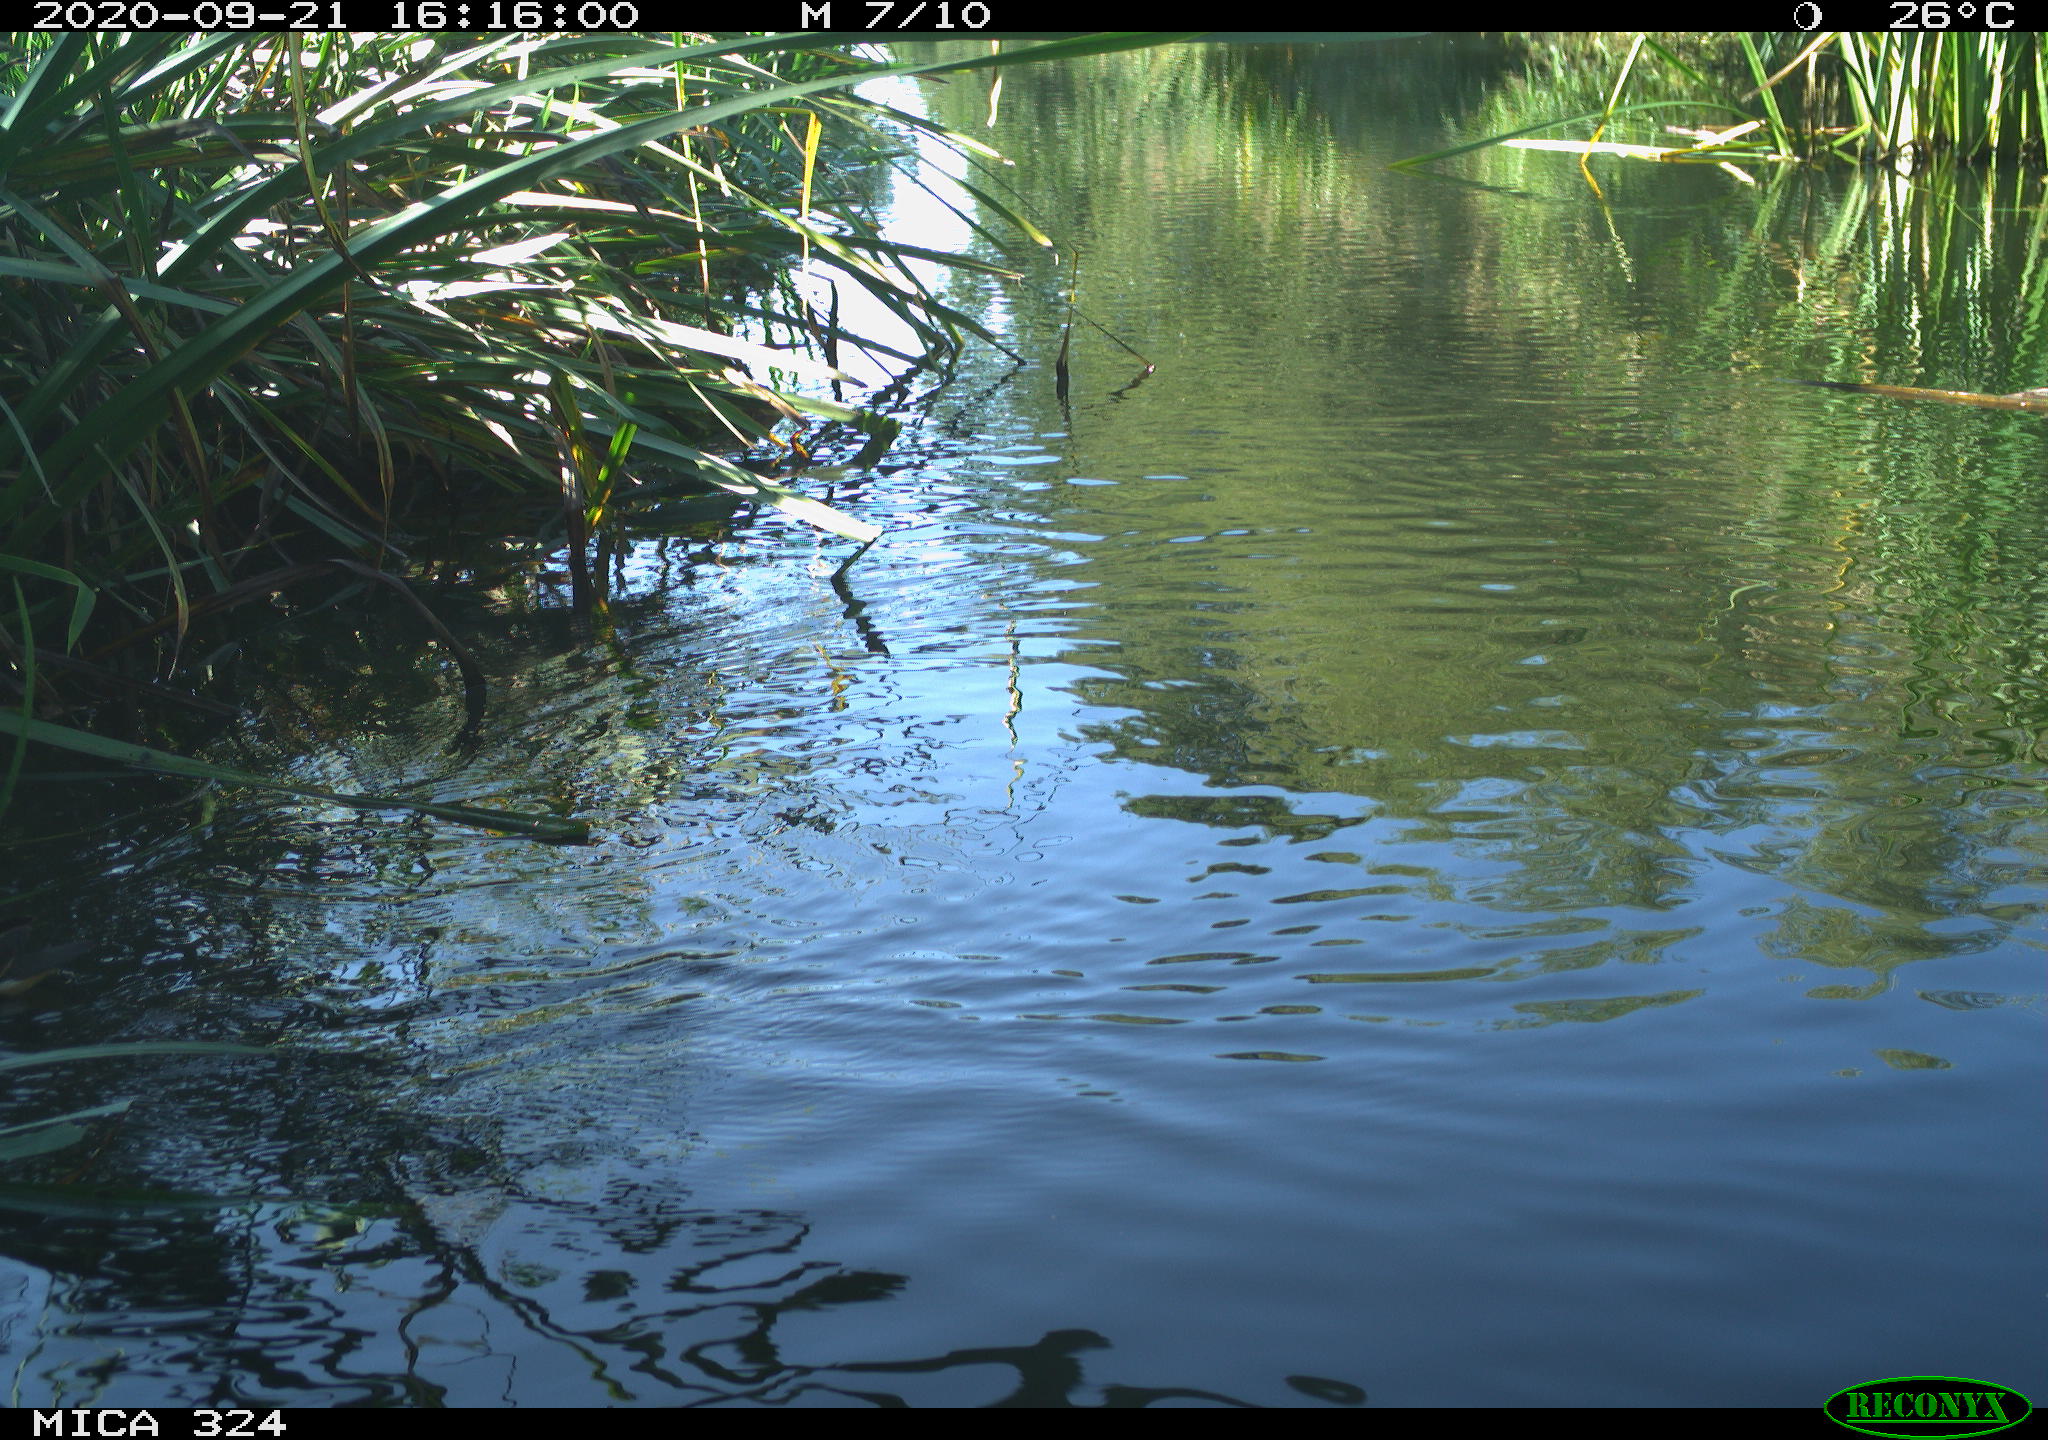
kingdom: Animalia
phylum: Chordata
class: Aves
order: Gruiformes
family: Rallidae
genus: Gallinula
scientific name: Gallinula chloropus
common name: Common moorhen
